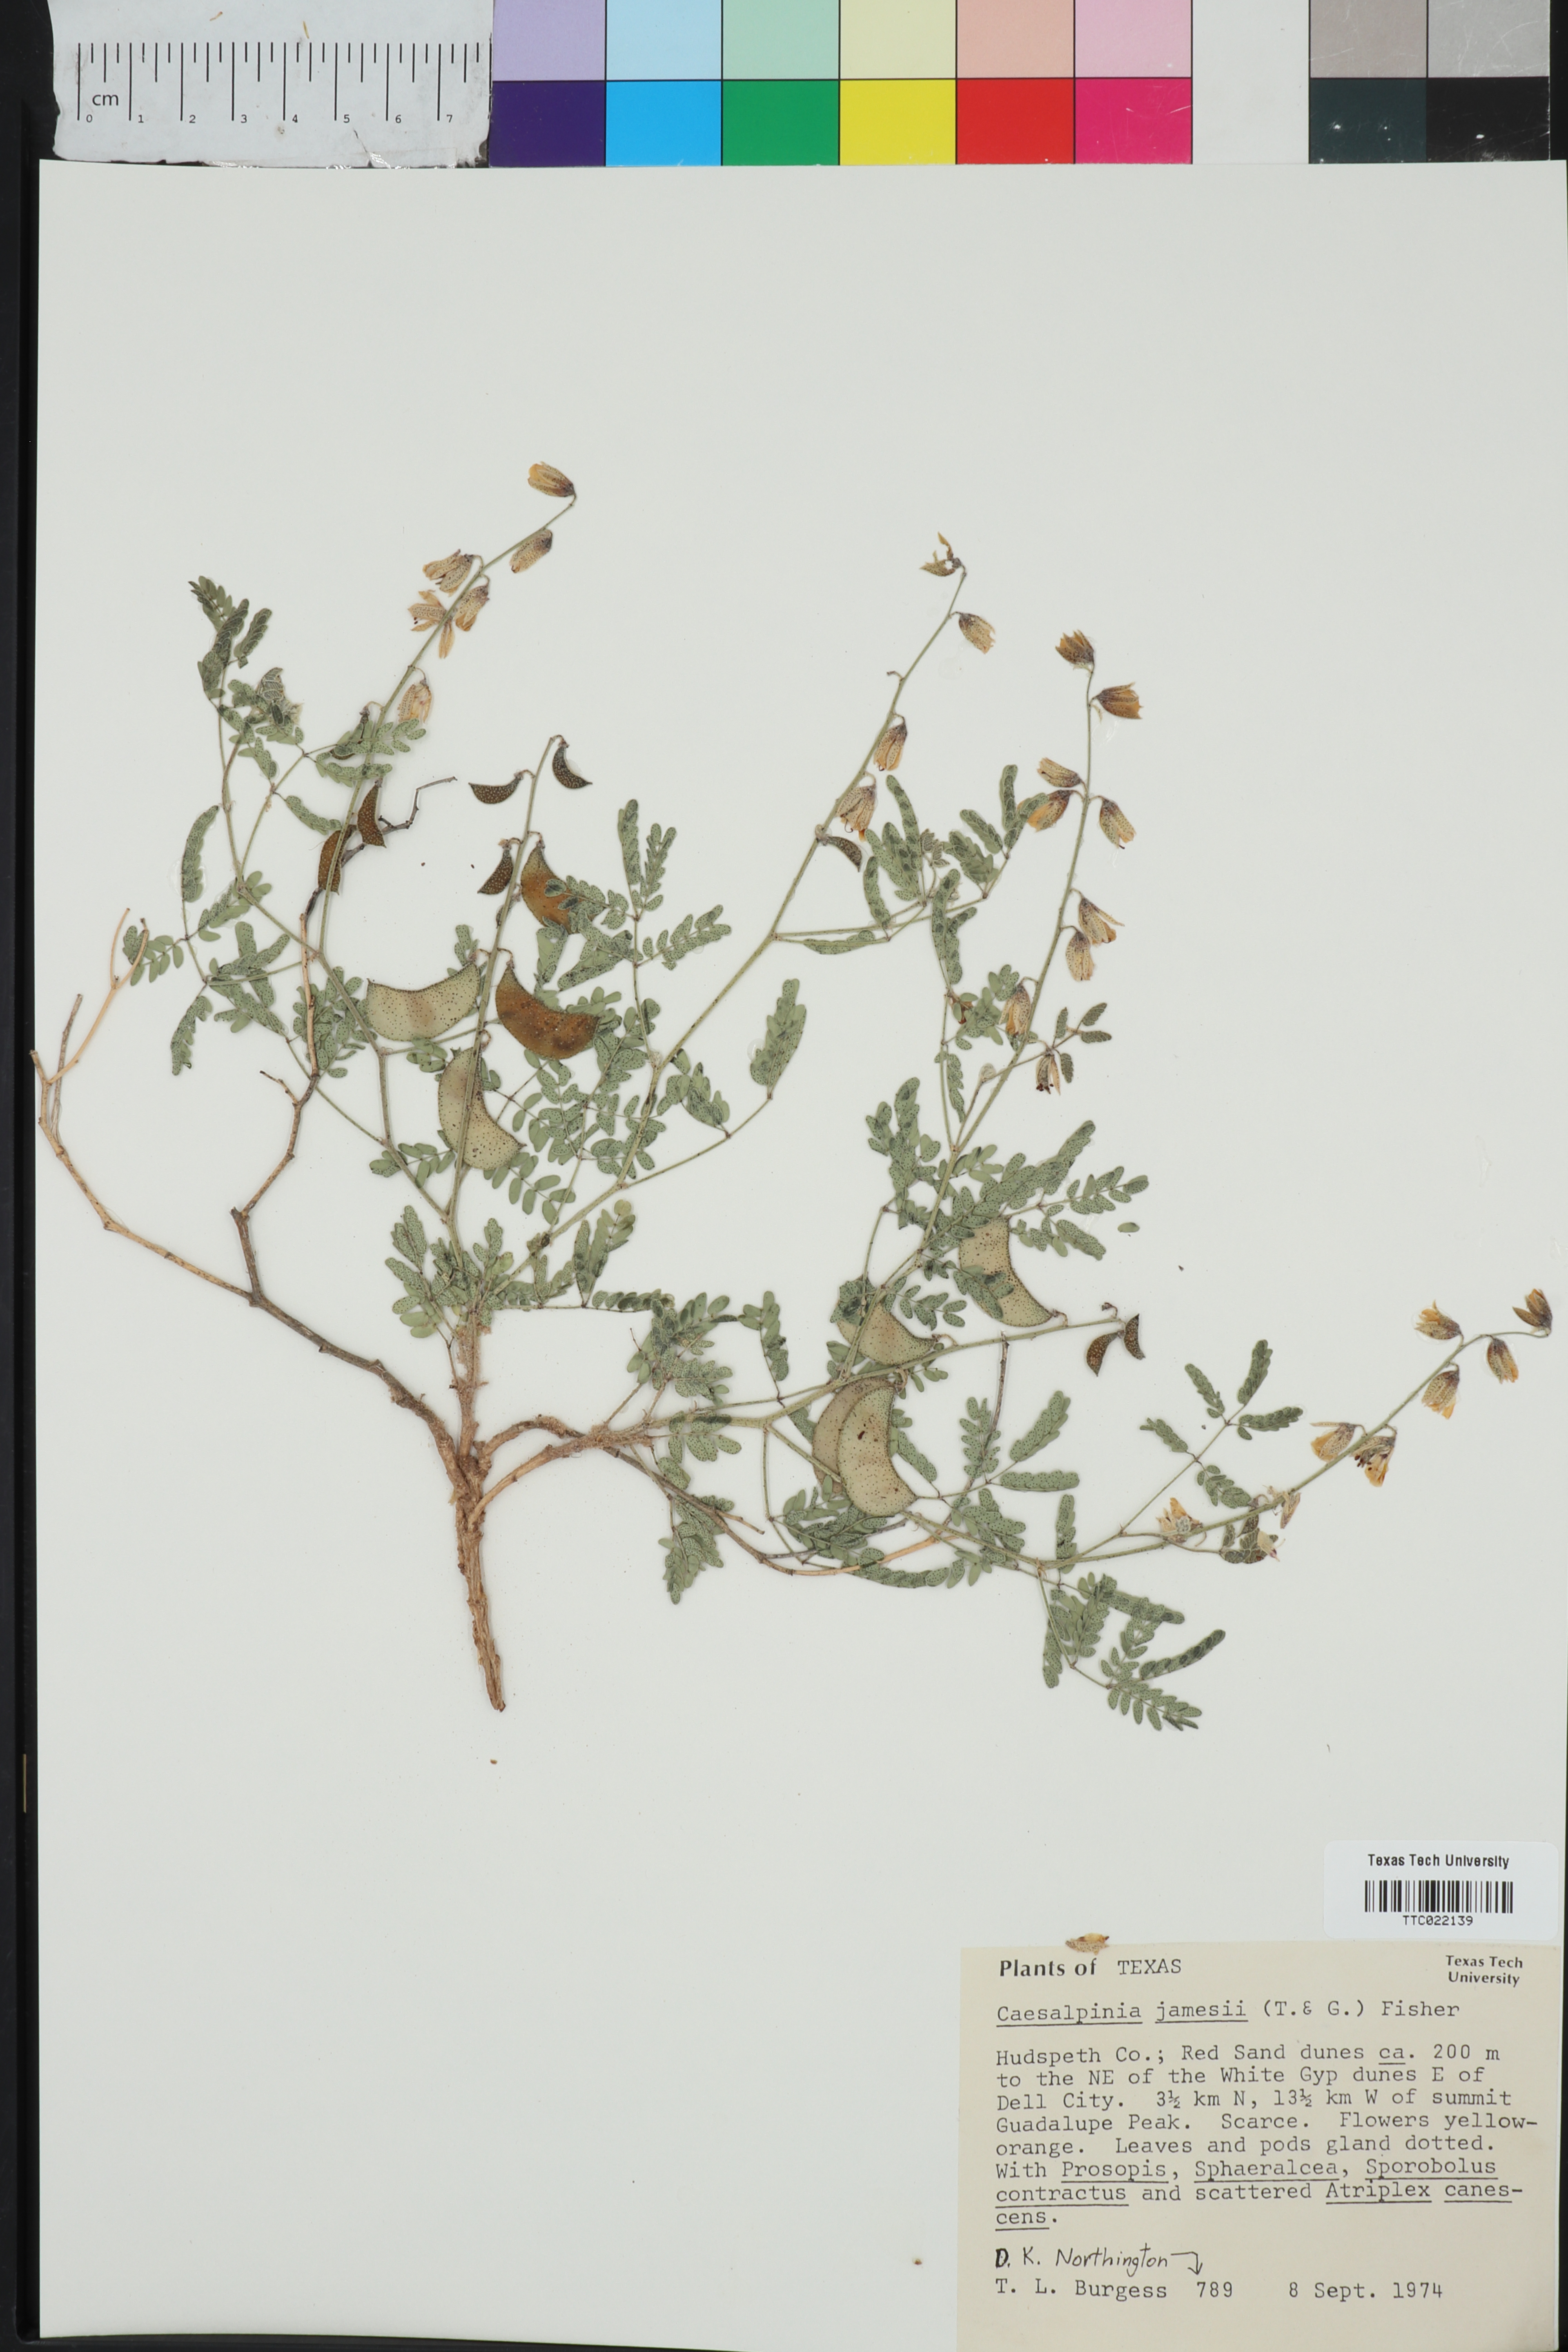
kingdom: Plantae
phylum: Tracheophyta
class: Magnoliopsida
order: Fabales
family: Fabaceae
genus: Pomaria
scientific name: Pomaria jamesii
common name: James' caesalpinia
